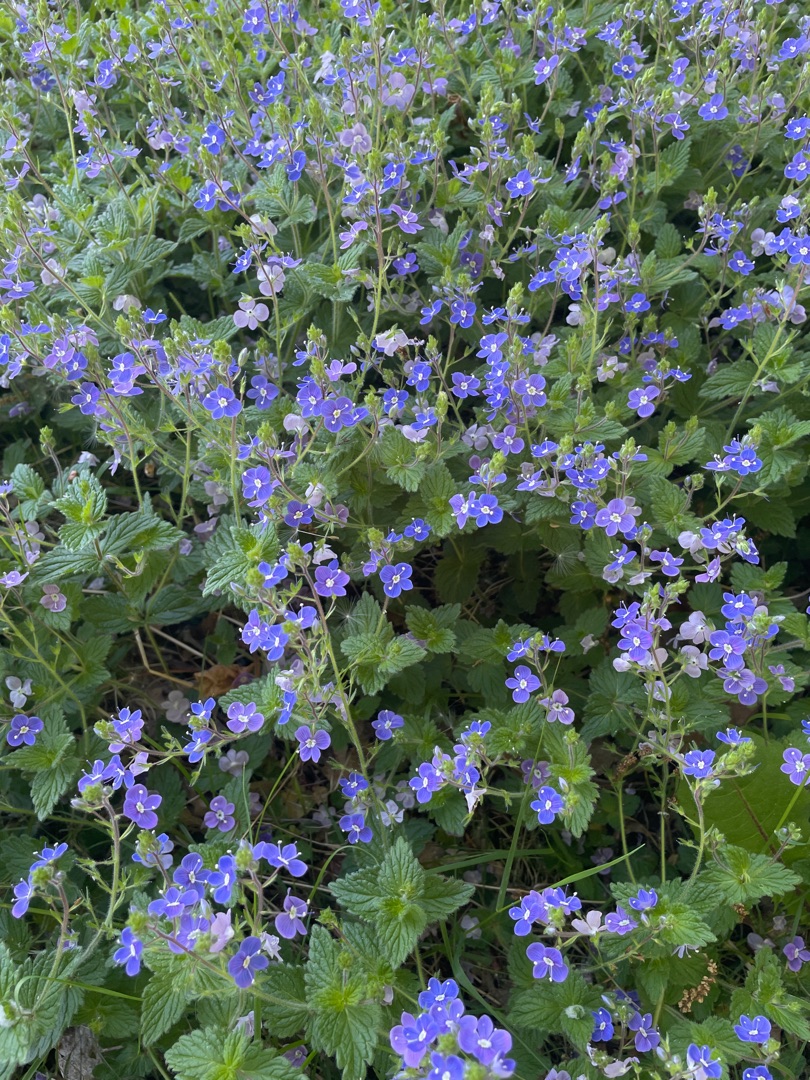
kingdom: Plantae
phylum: Tracheophyta
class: Magnoliopsida
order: Lamiales
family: Plantaginaceae
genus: Veronica
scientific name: Veronica chamaedrys
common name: Tveskægget ærenpris
